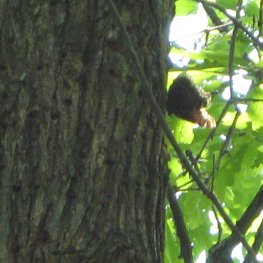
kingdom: Animalia
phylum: Arthropoda
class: Insecta
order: Lepidoptera
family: Nymphalidae
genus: Nymphalis
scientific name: Nymphalis antiopa
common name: Mourning Cloak
